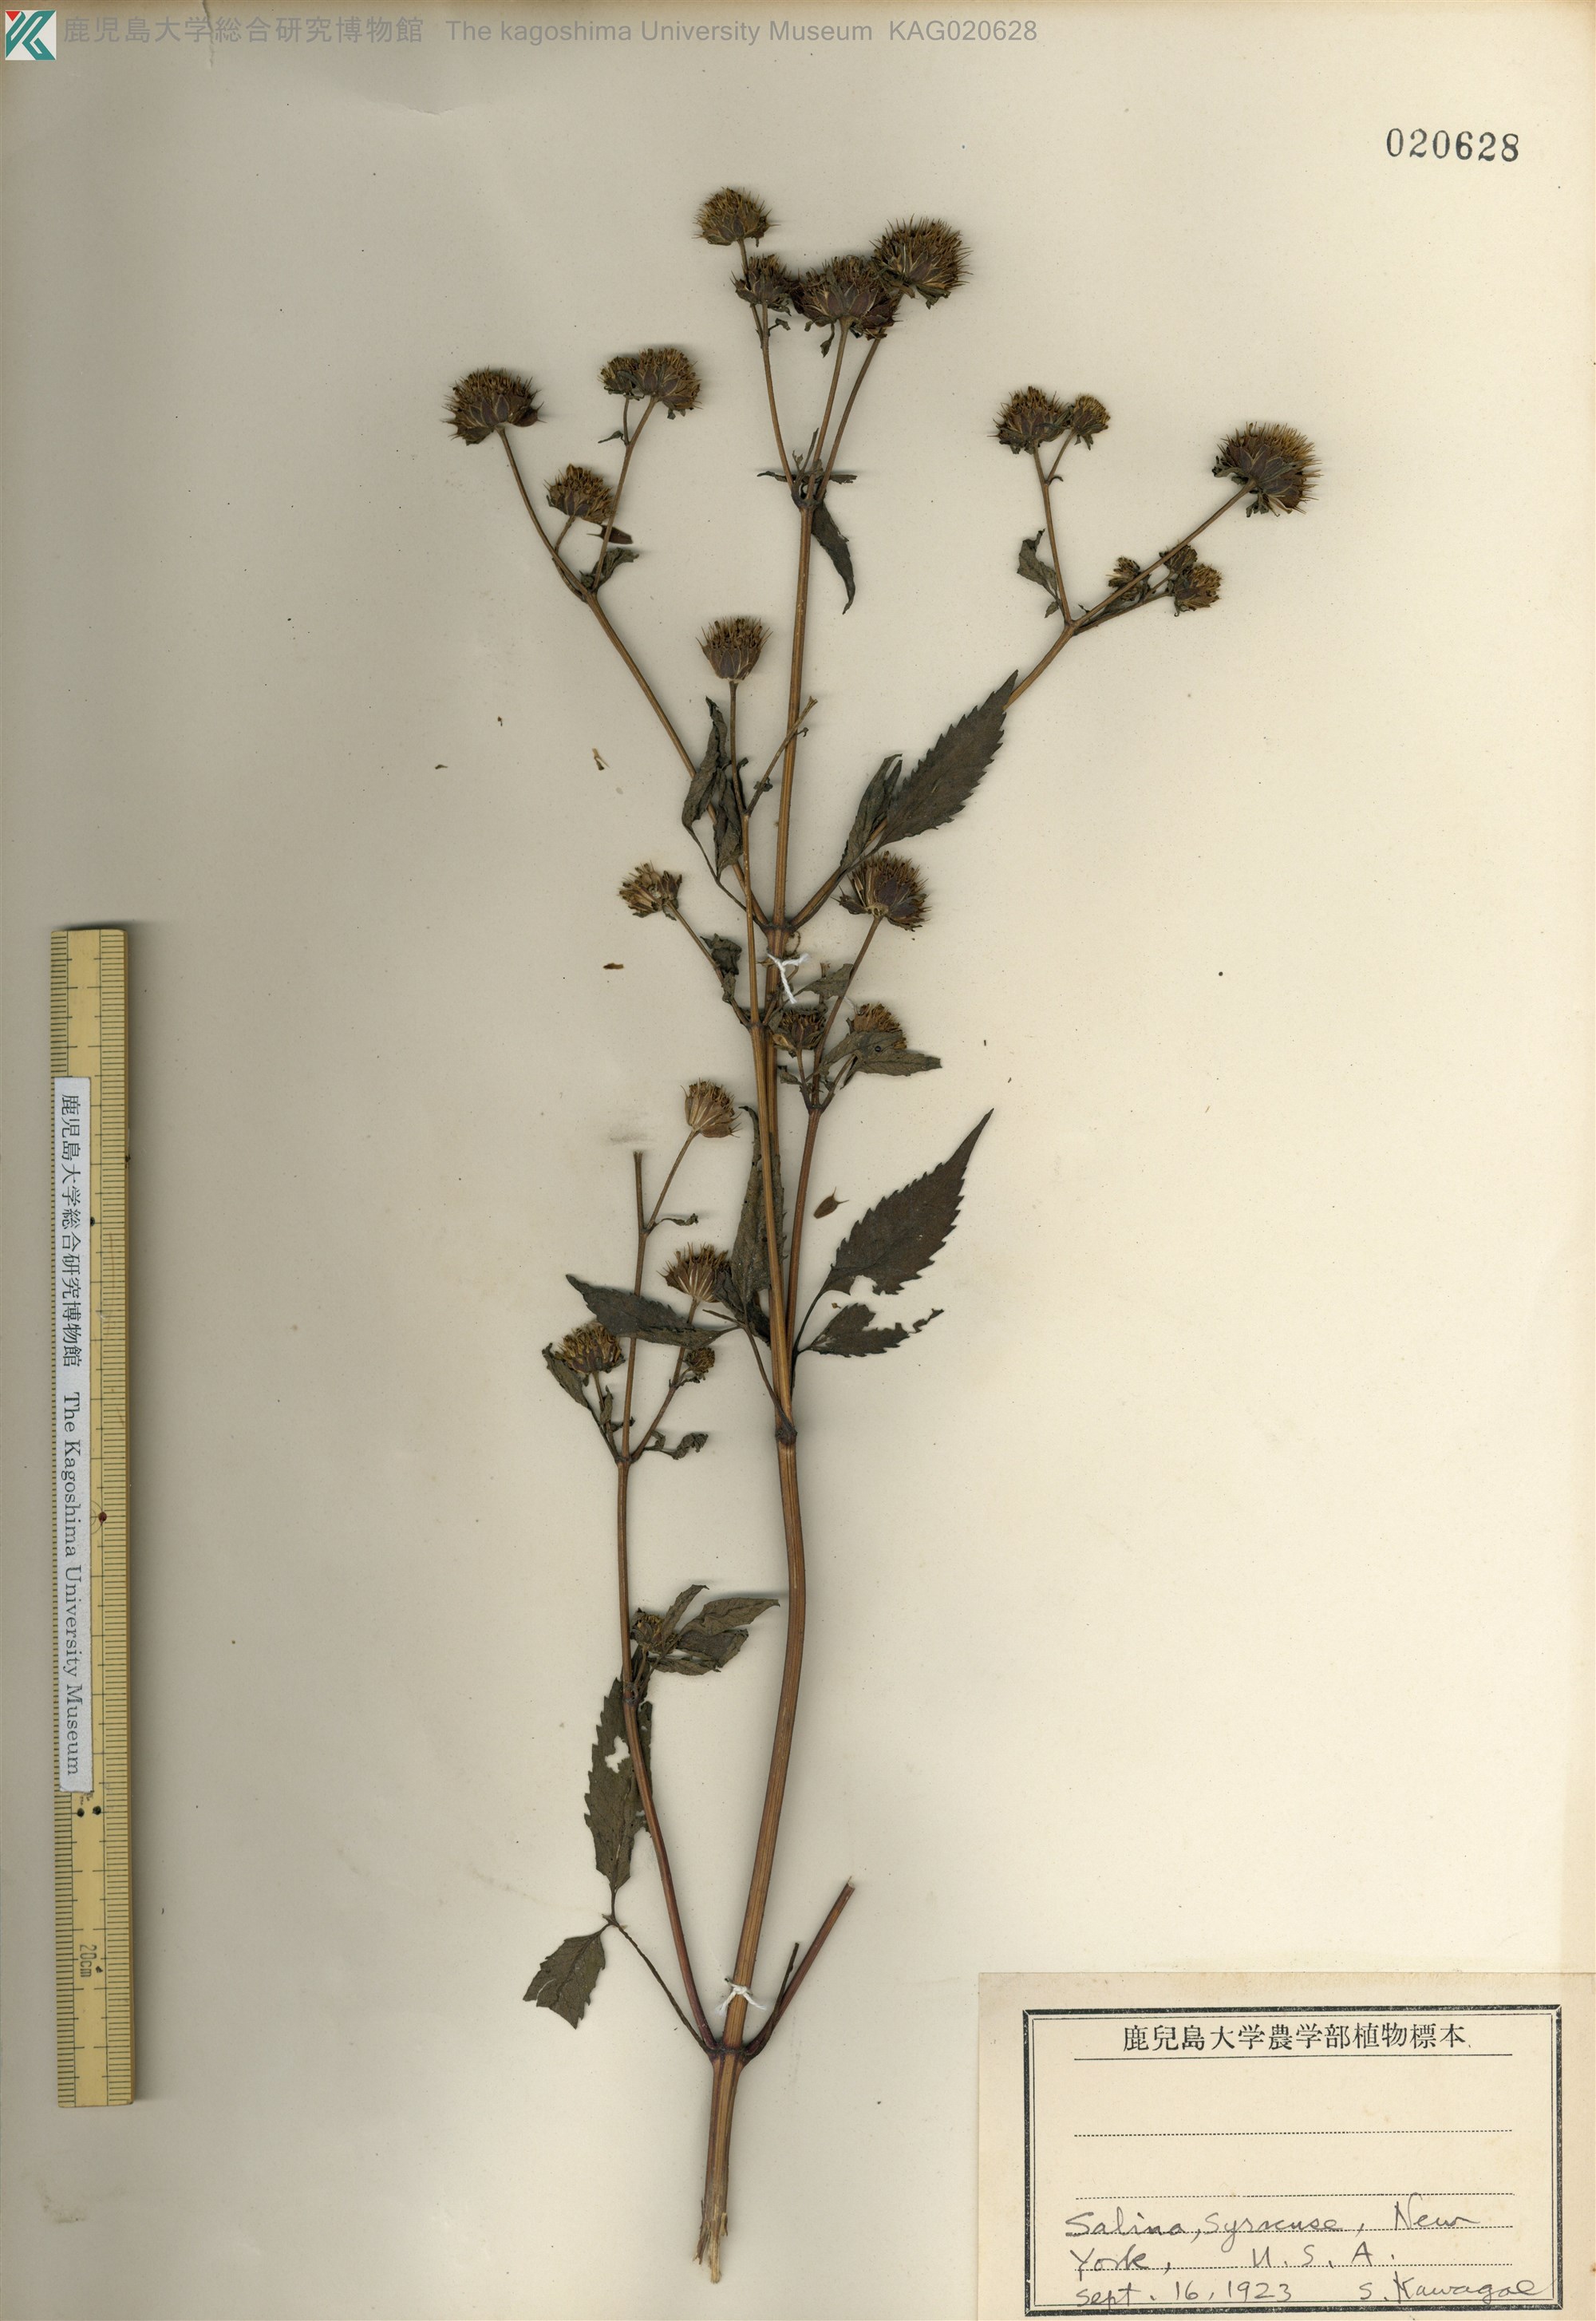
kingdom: Plantae
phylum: Tracheophyta
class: Magnoliopsida
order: Asterales
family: Asteraceae
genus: Bidens
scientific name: Bidens frondosa
